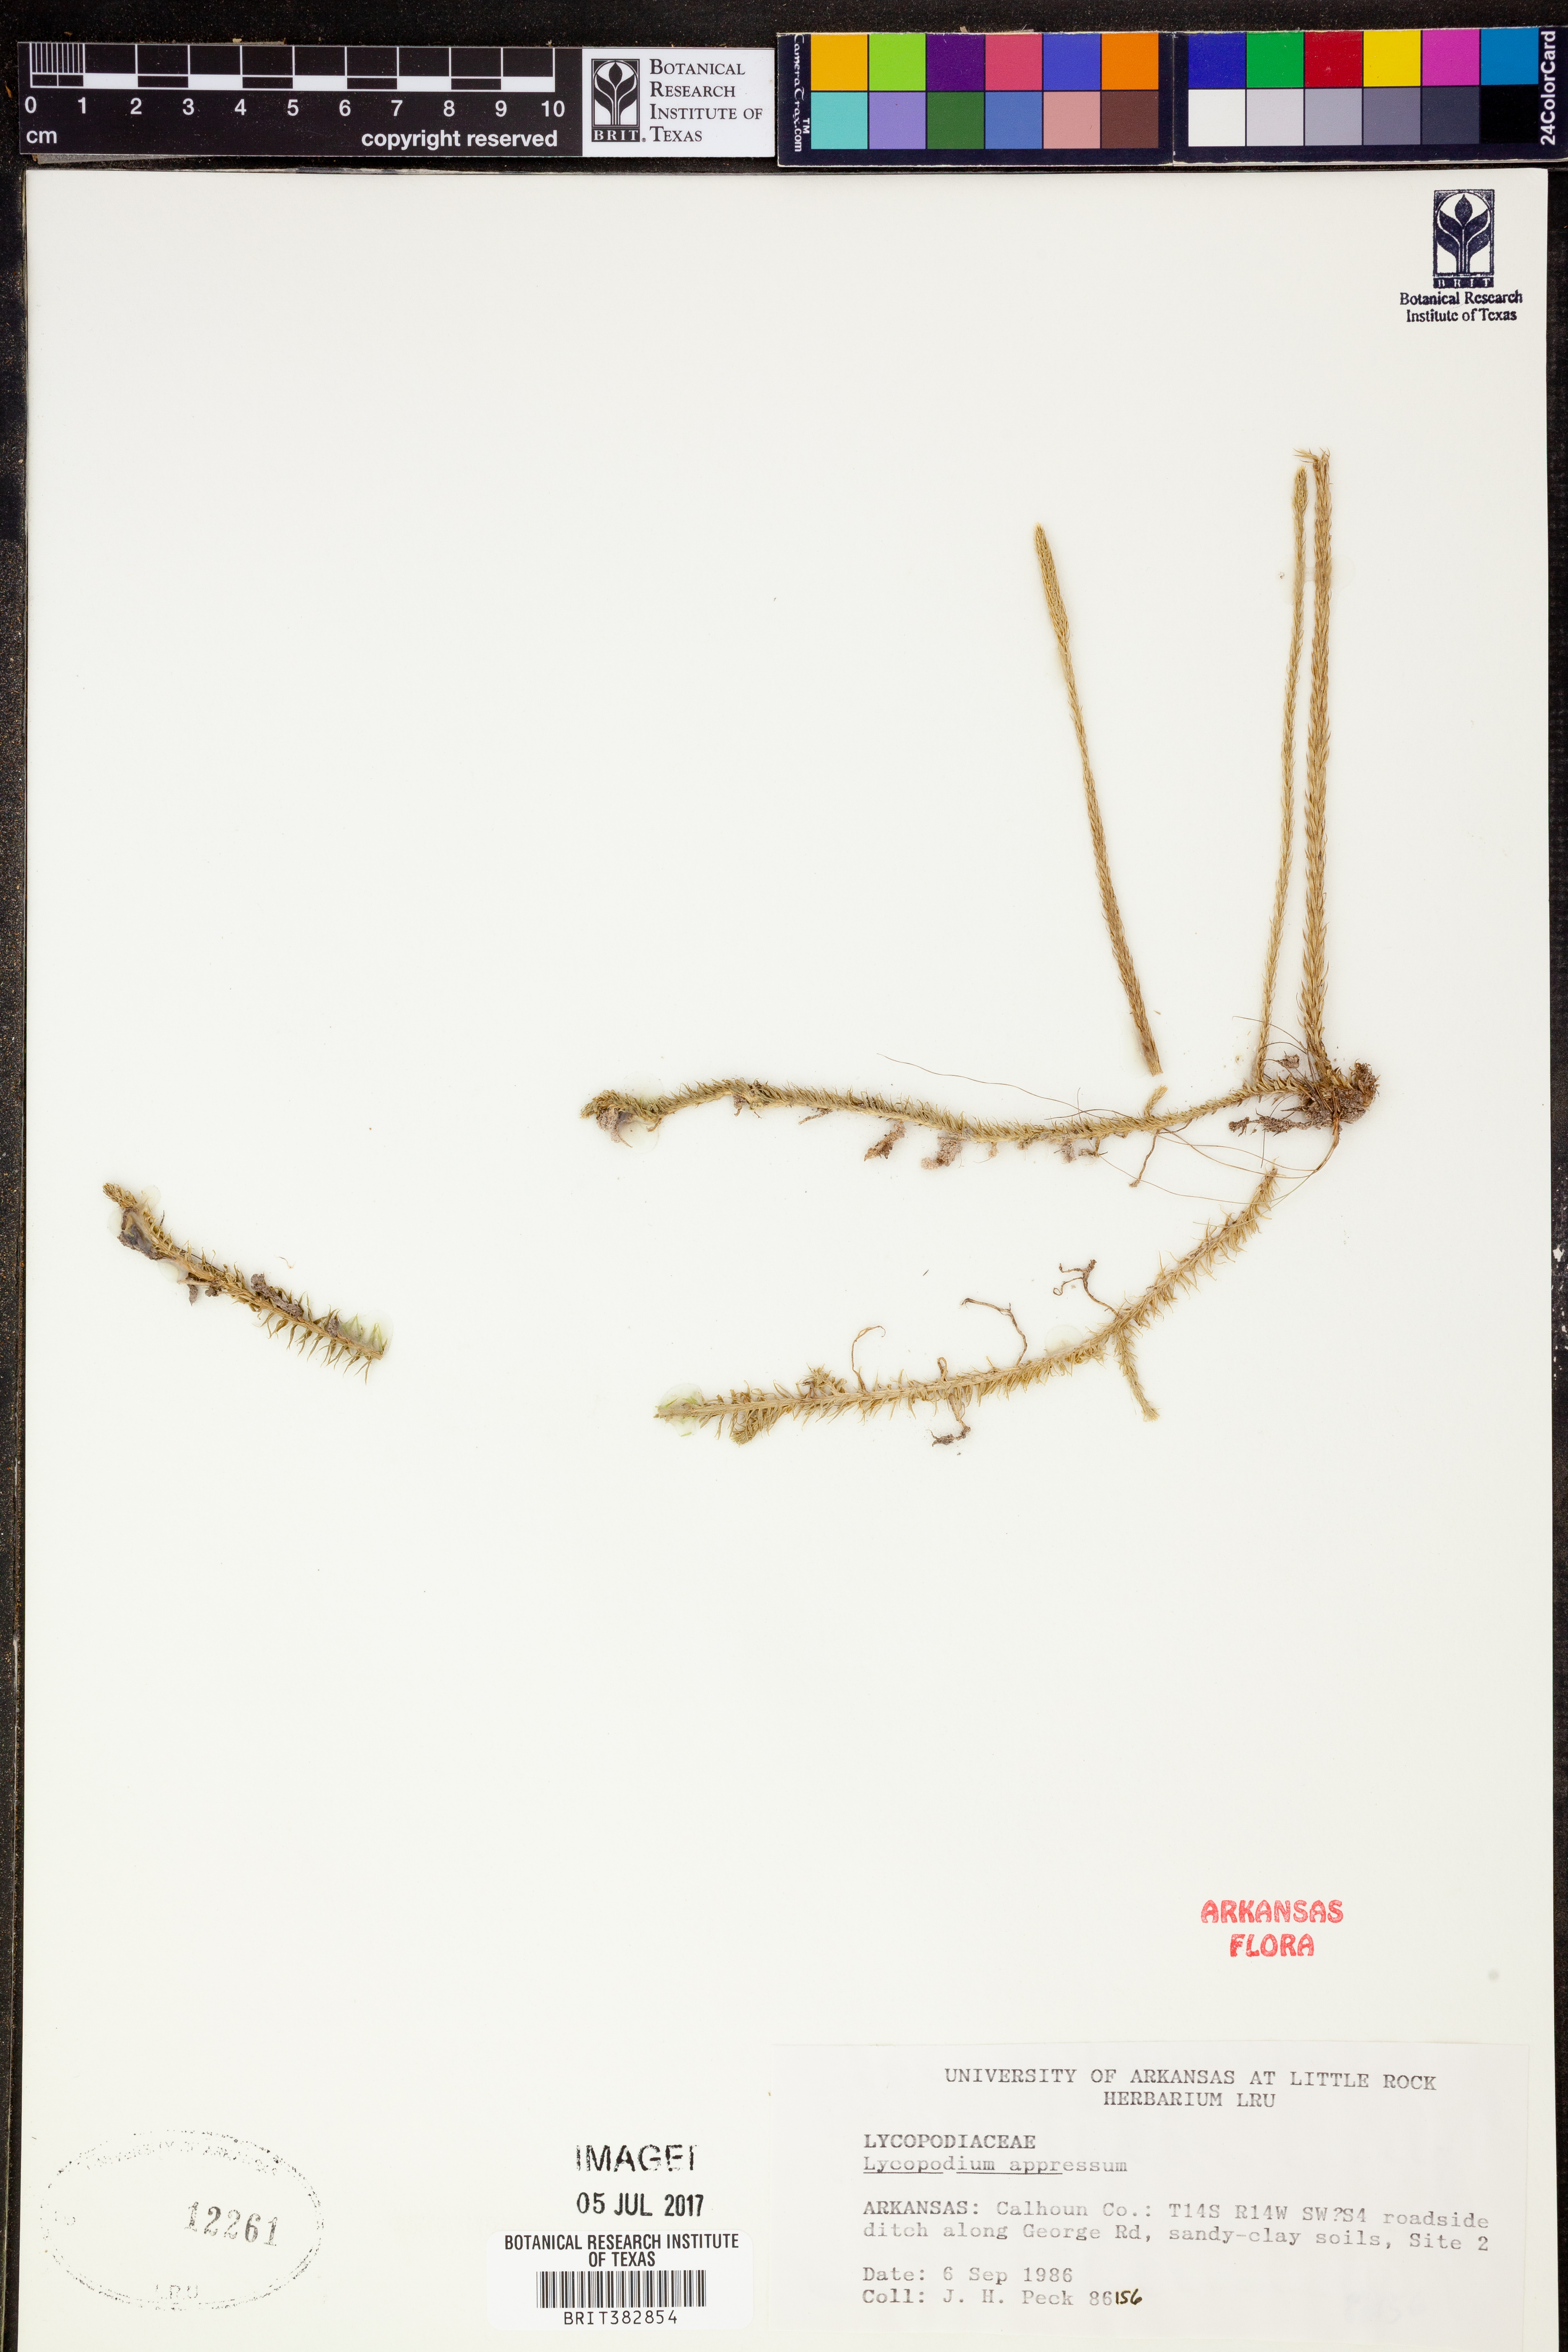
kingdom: Plantae
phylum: Tracheophyta
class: Lycopodiopsida
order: Lycopodiales
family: Lycopodiaceae
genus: Lycopodiella
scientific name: Lycopodiella appressa
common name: Appressed bog clubmoss
